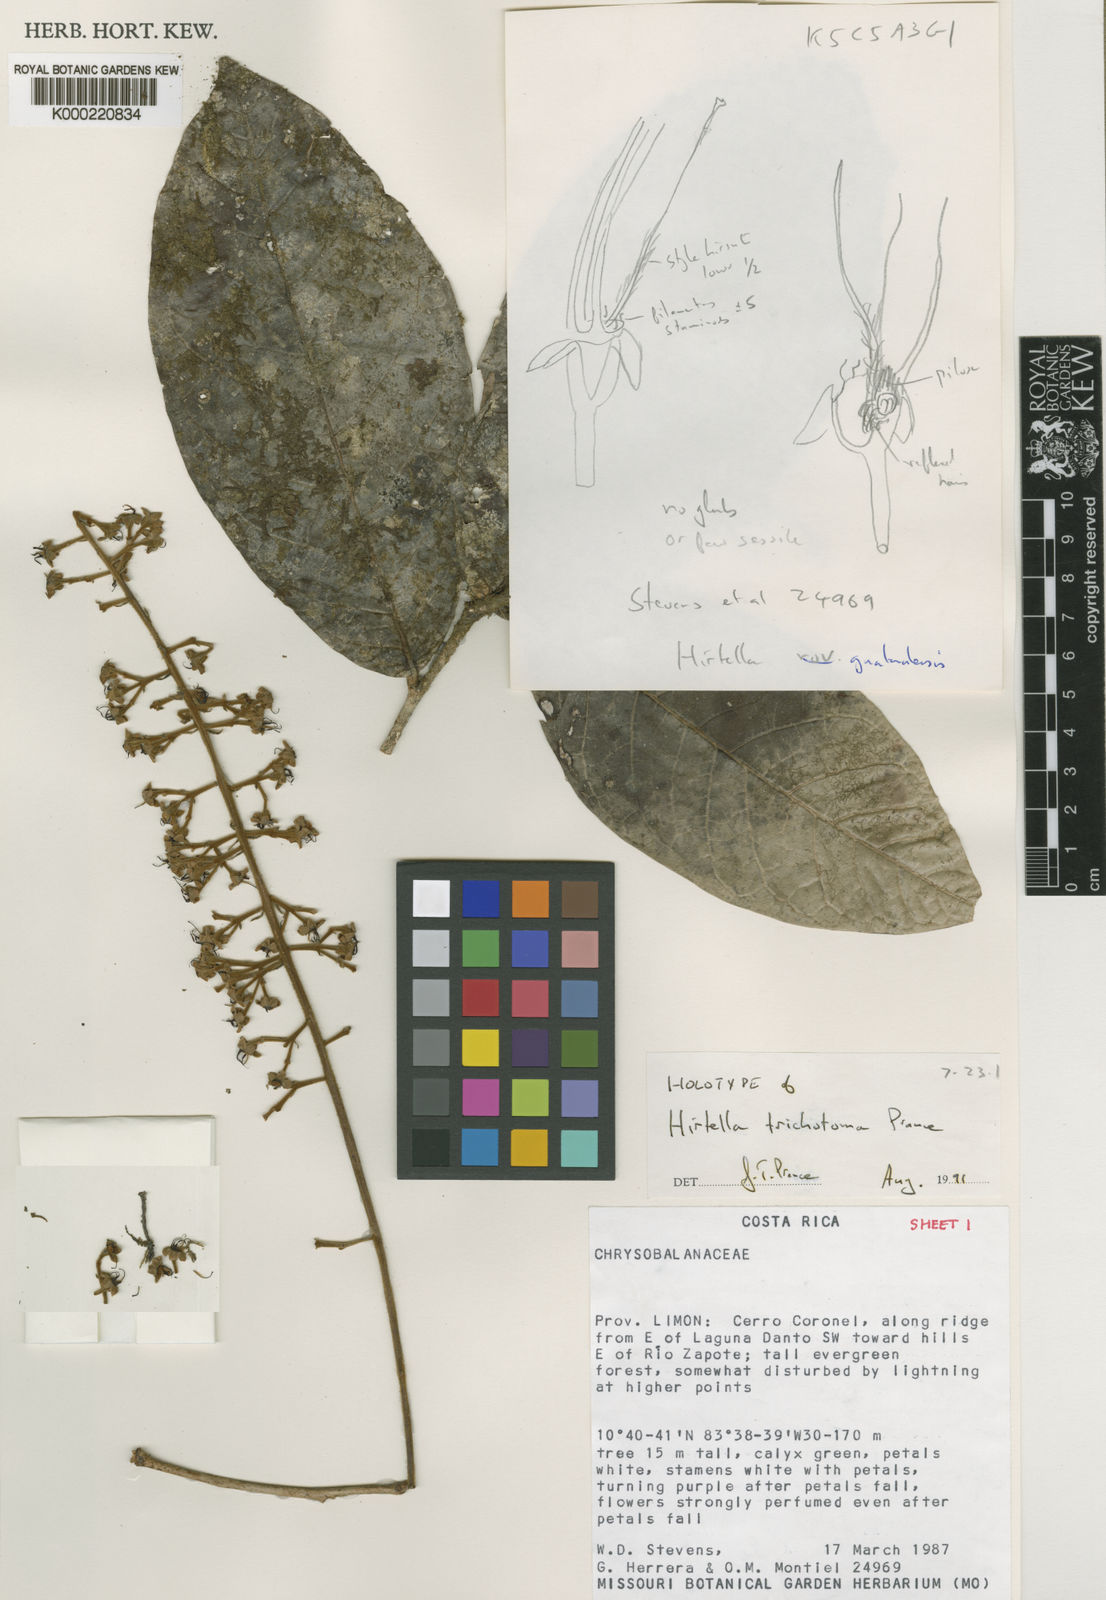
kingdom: Plantae
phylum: Tracheophyta
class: Magnoliopsida
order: Malpighiales
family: Chrysobalanaceae
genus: Hirtella
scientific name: Hirtella trichotoma
